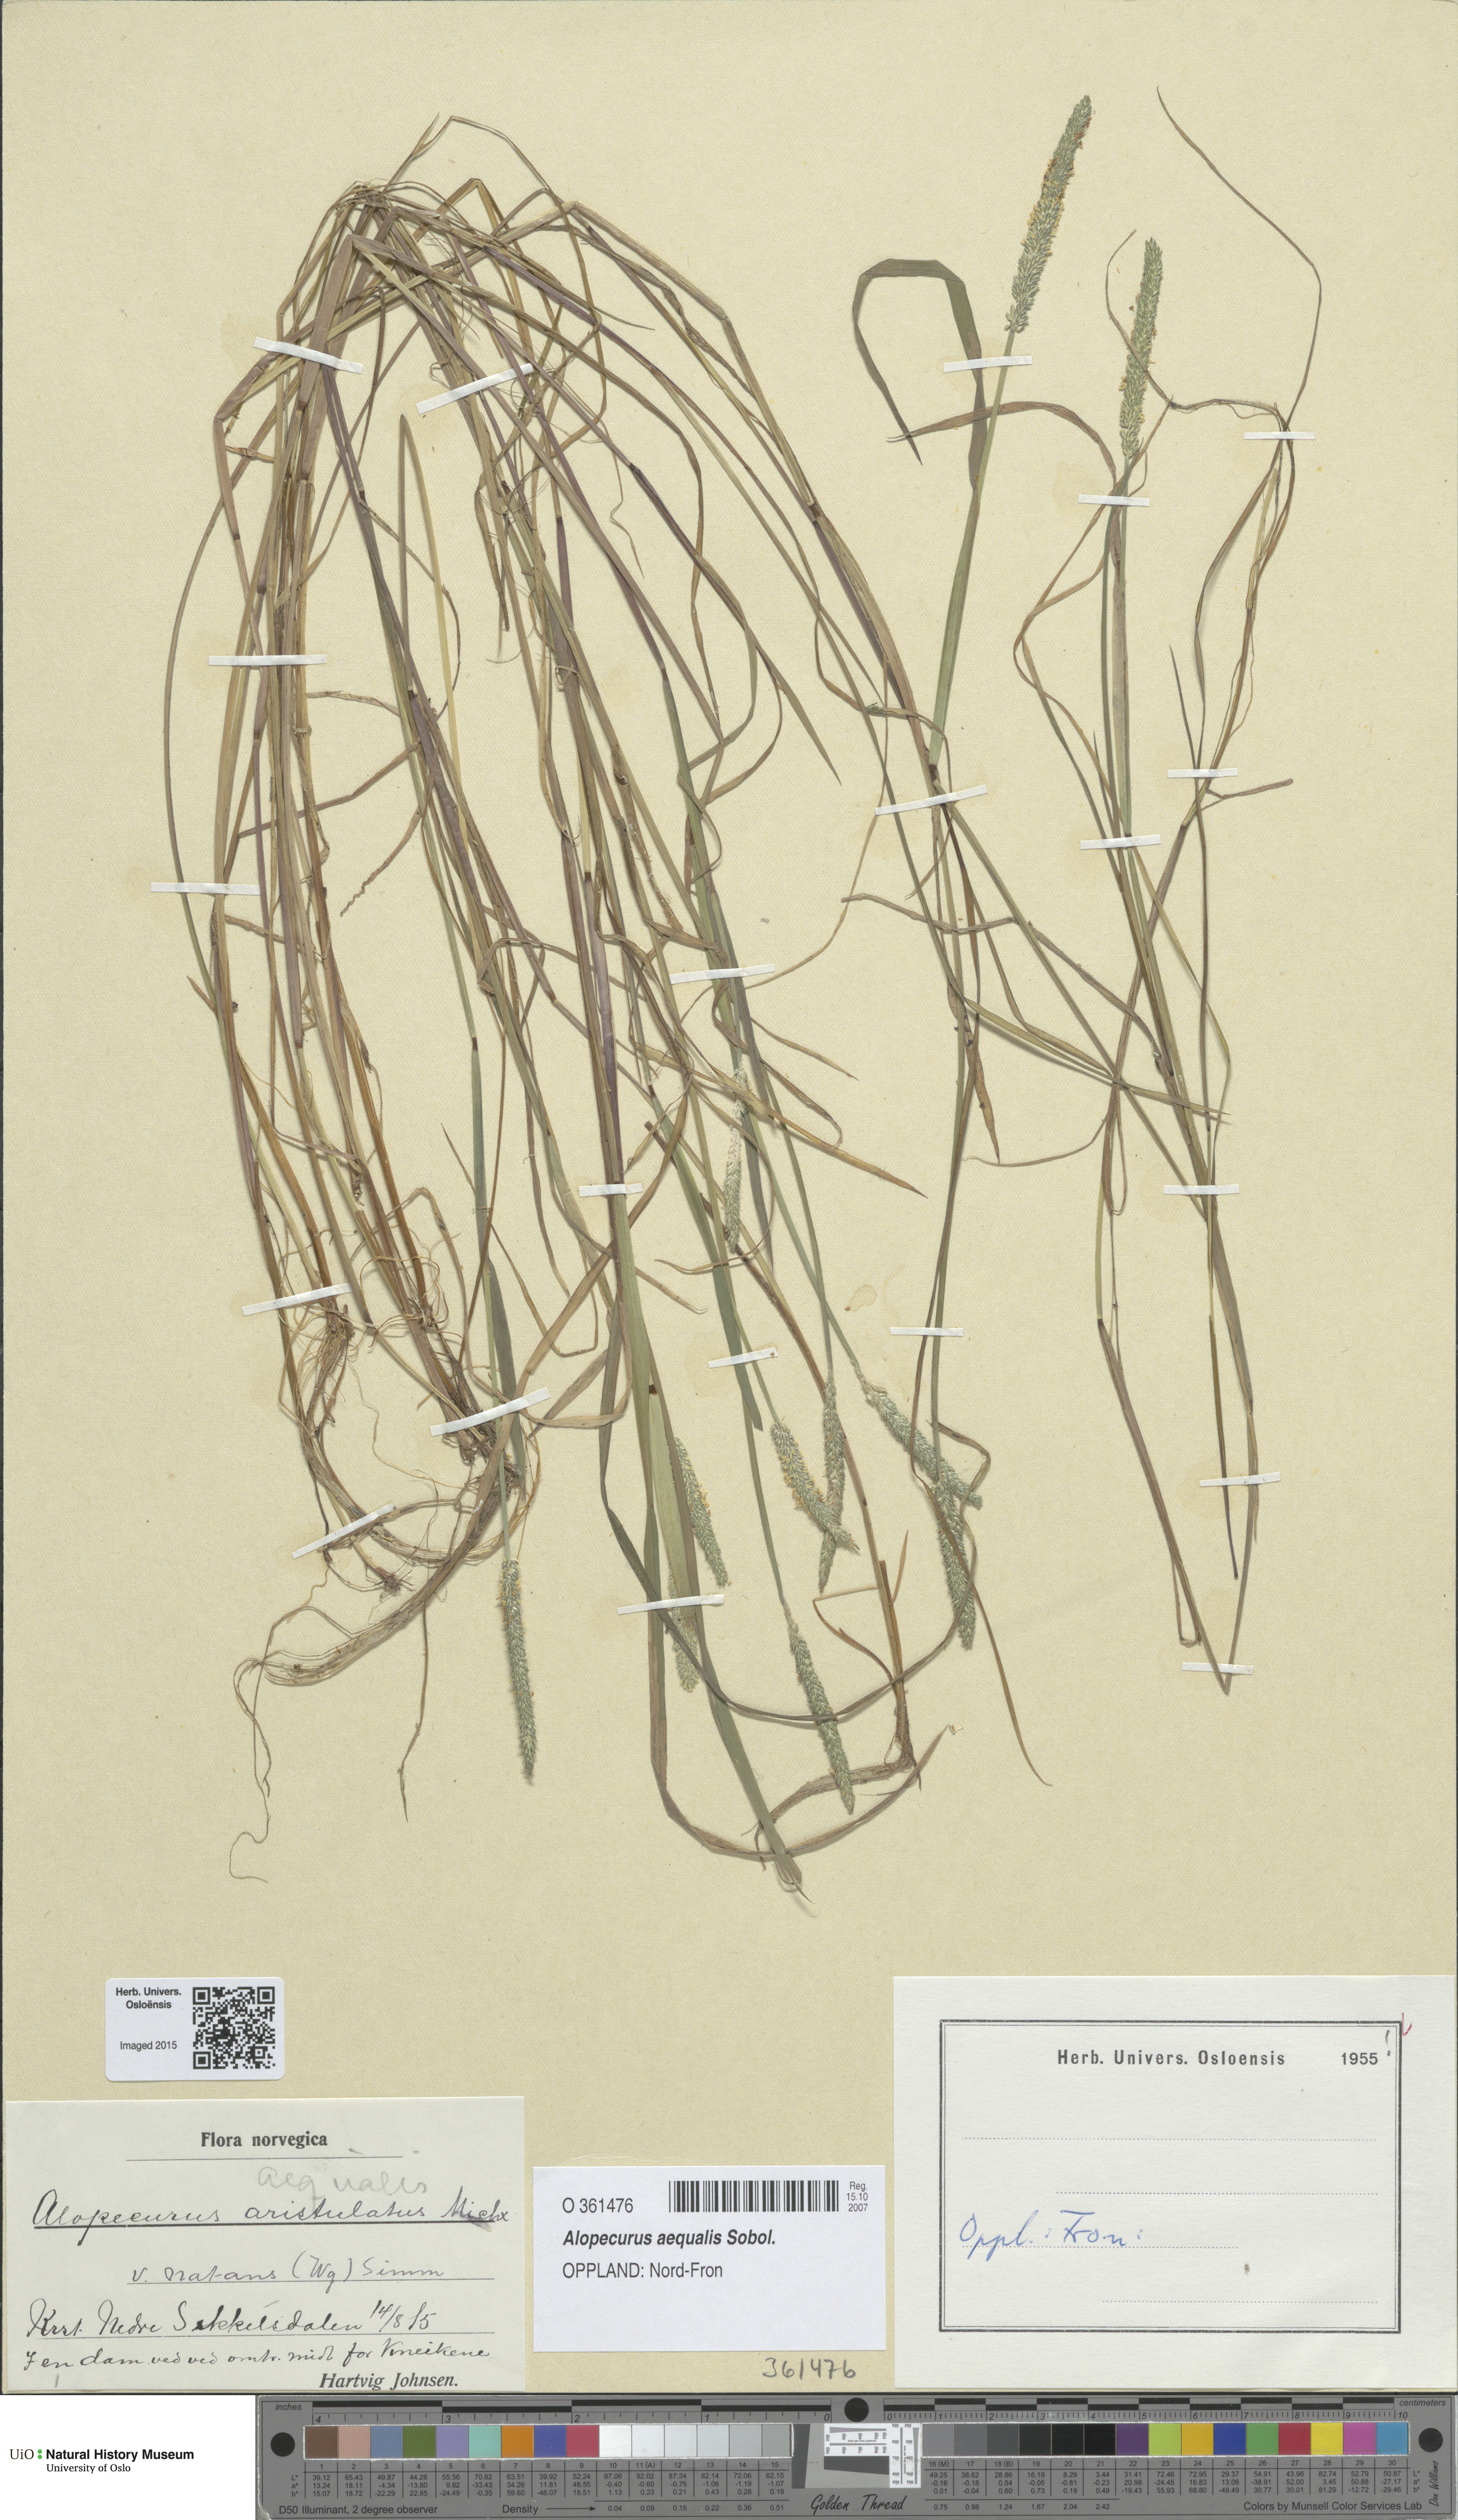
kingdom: Plantae
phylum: Tracheophyta
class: Liliopsida
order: Poales
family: Poaceae
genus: Alopecurus
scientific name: Alopecurus aequalis
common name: Orange foxtail
